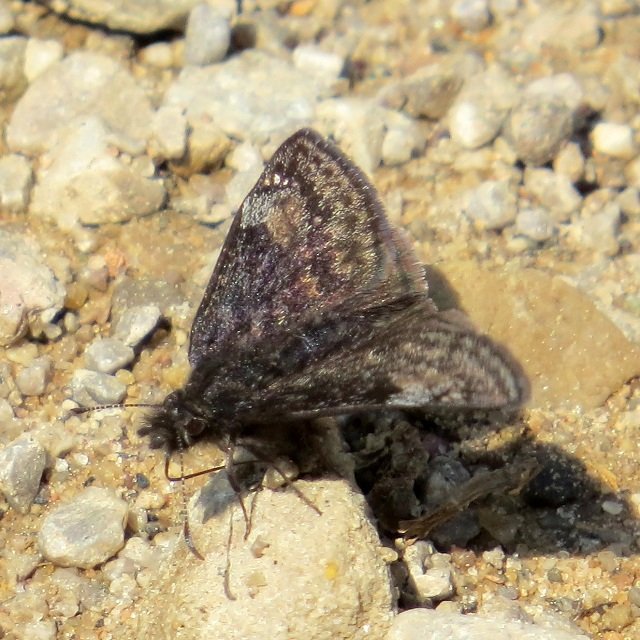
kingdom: Animalia
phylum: Arthropoda
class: Insecta
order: Lepidoptera
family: Hesperiidae
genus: Gesta
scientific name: Gesta
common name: Columbine Duskywing
